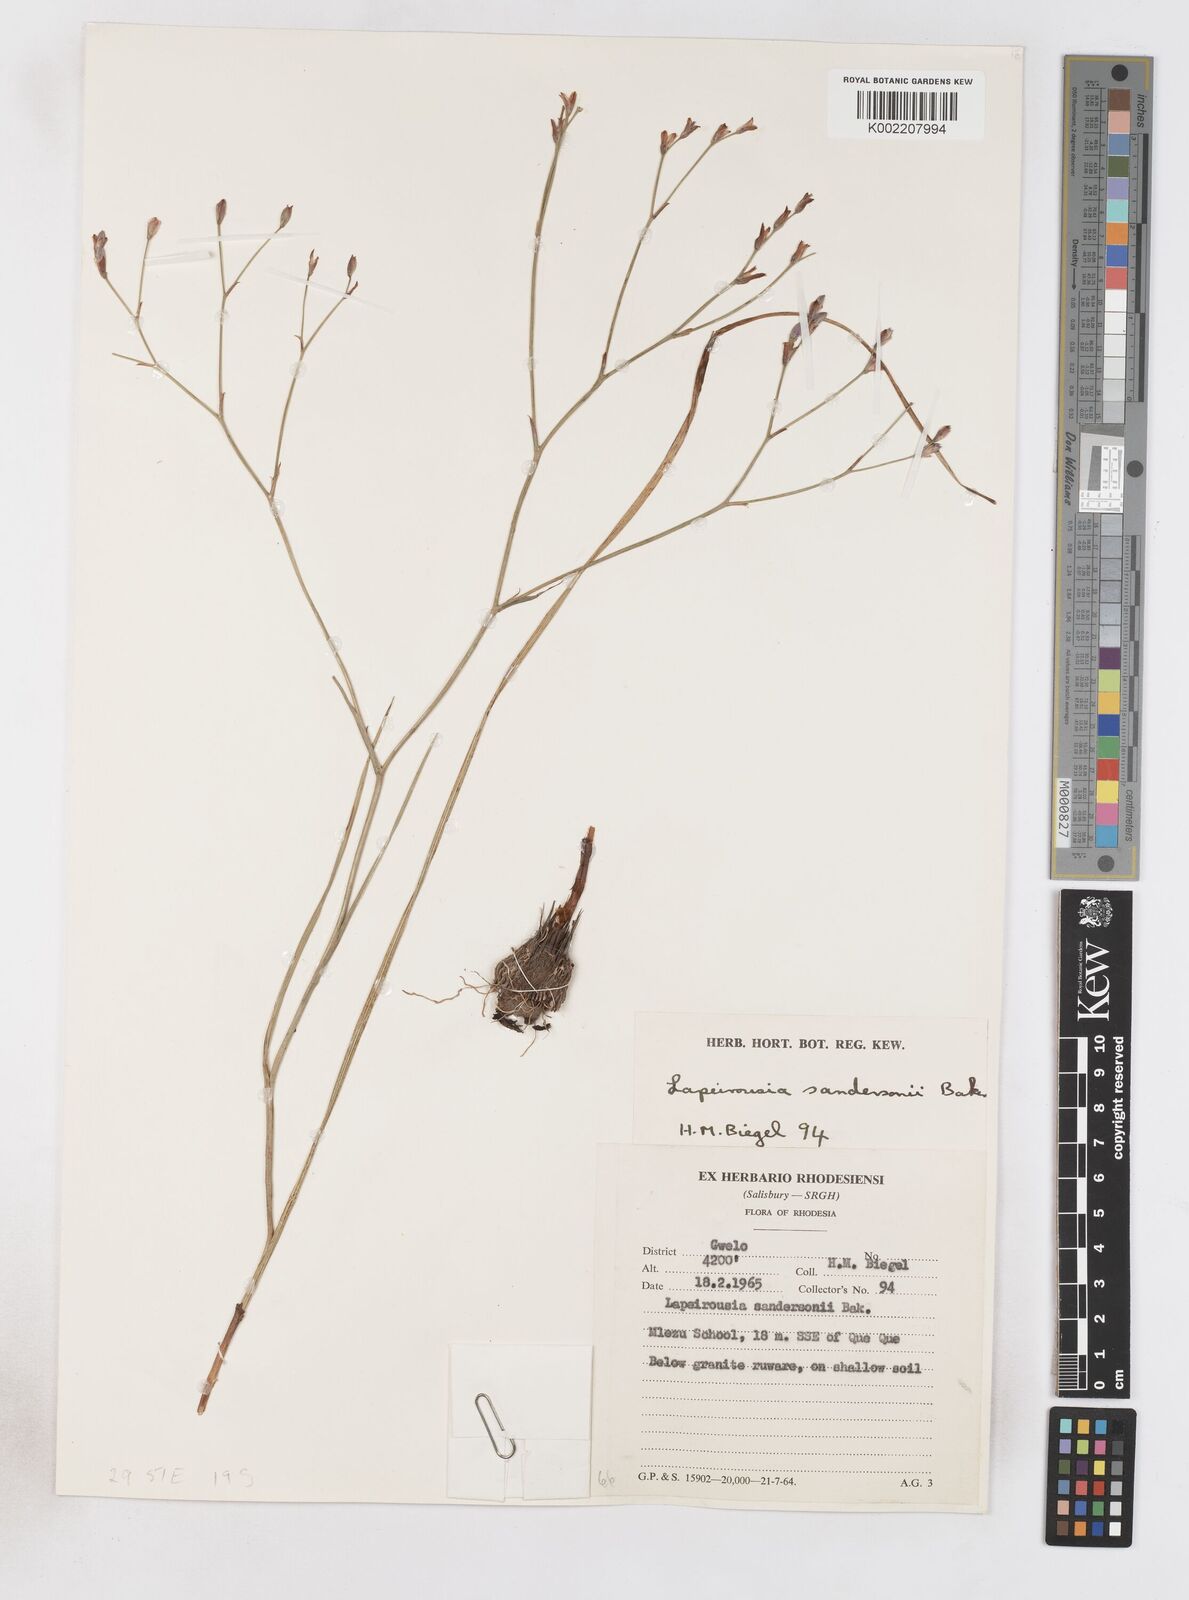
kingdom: Plantae
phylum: Tracheophyta
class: Liliopsida
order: Asparagales
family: Iridaceae
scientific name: Iridaceae
